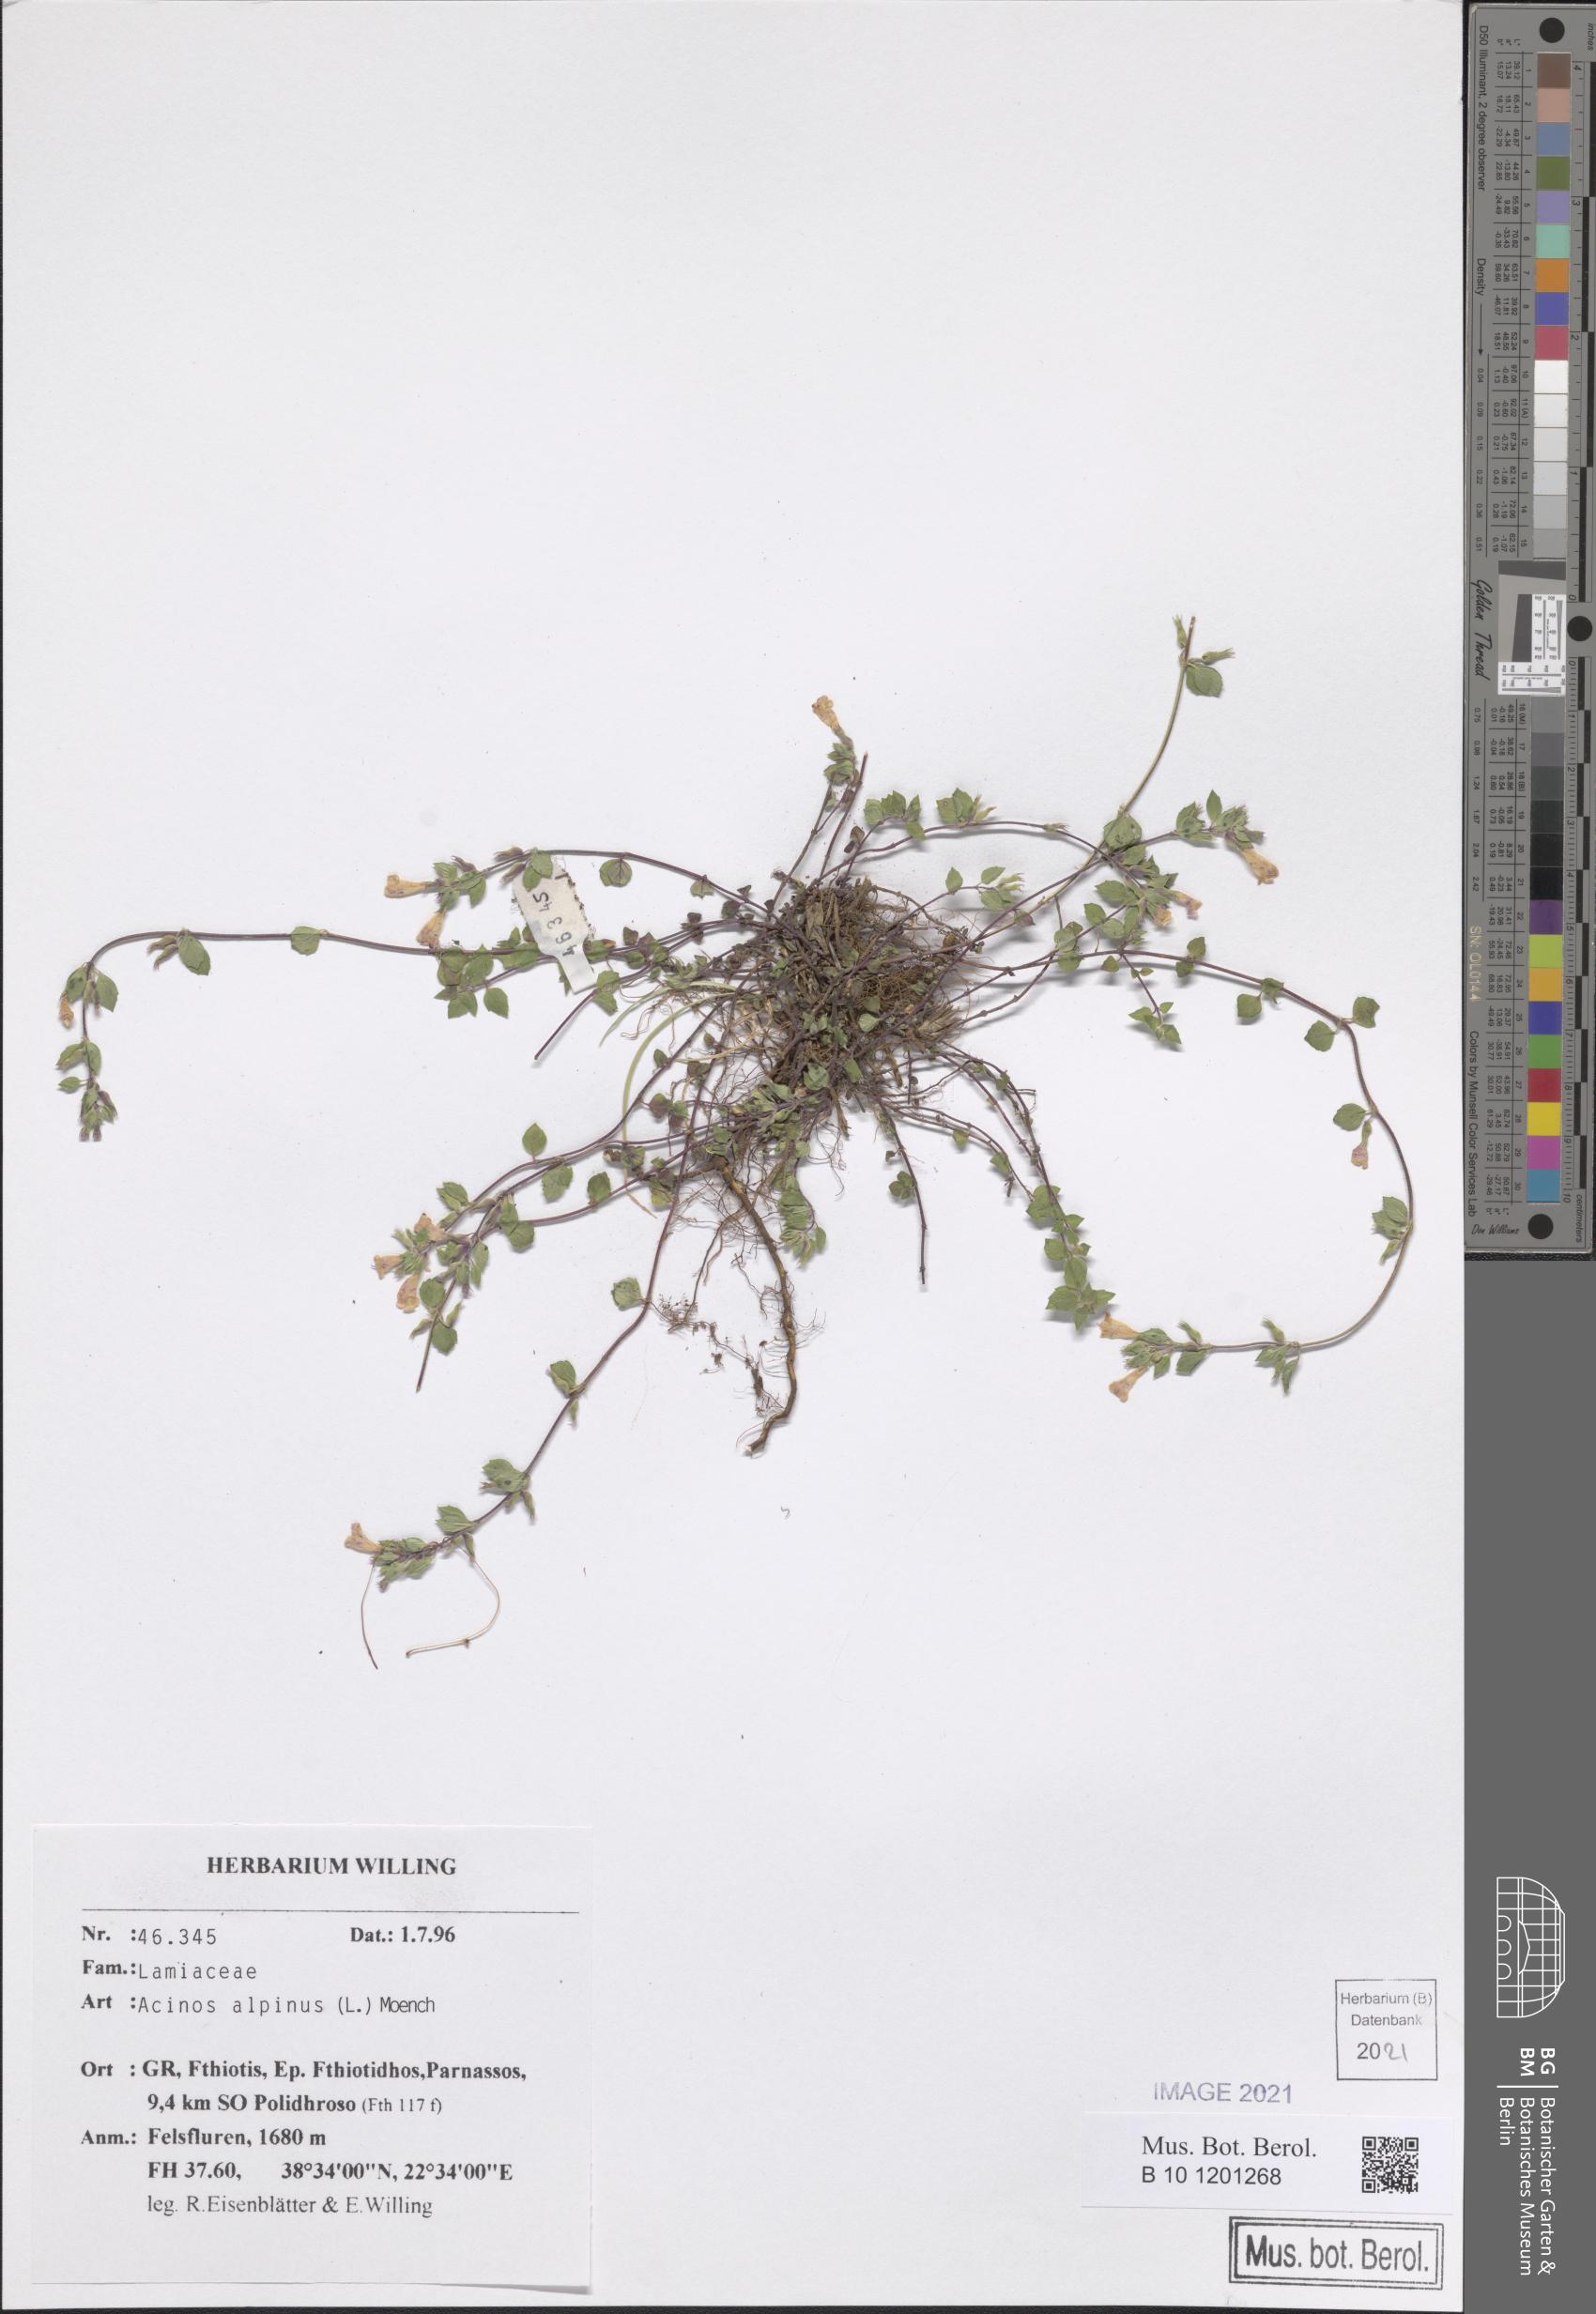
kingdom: Plantae
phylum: Tracheophyta
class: Magnoliopsida
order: Lamiales
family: Lamiaceae
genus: Clinopodium
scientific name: Clinopodium alpinum
